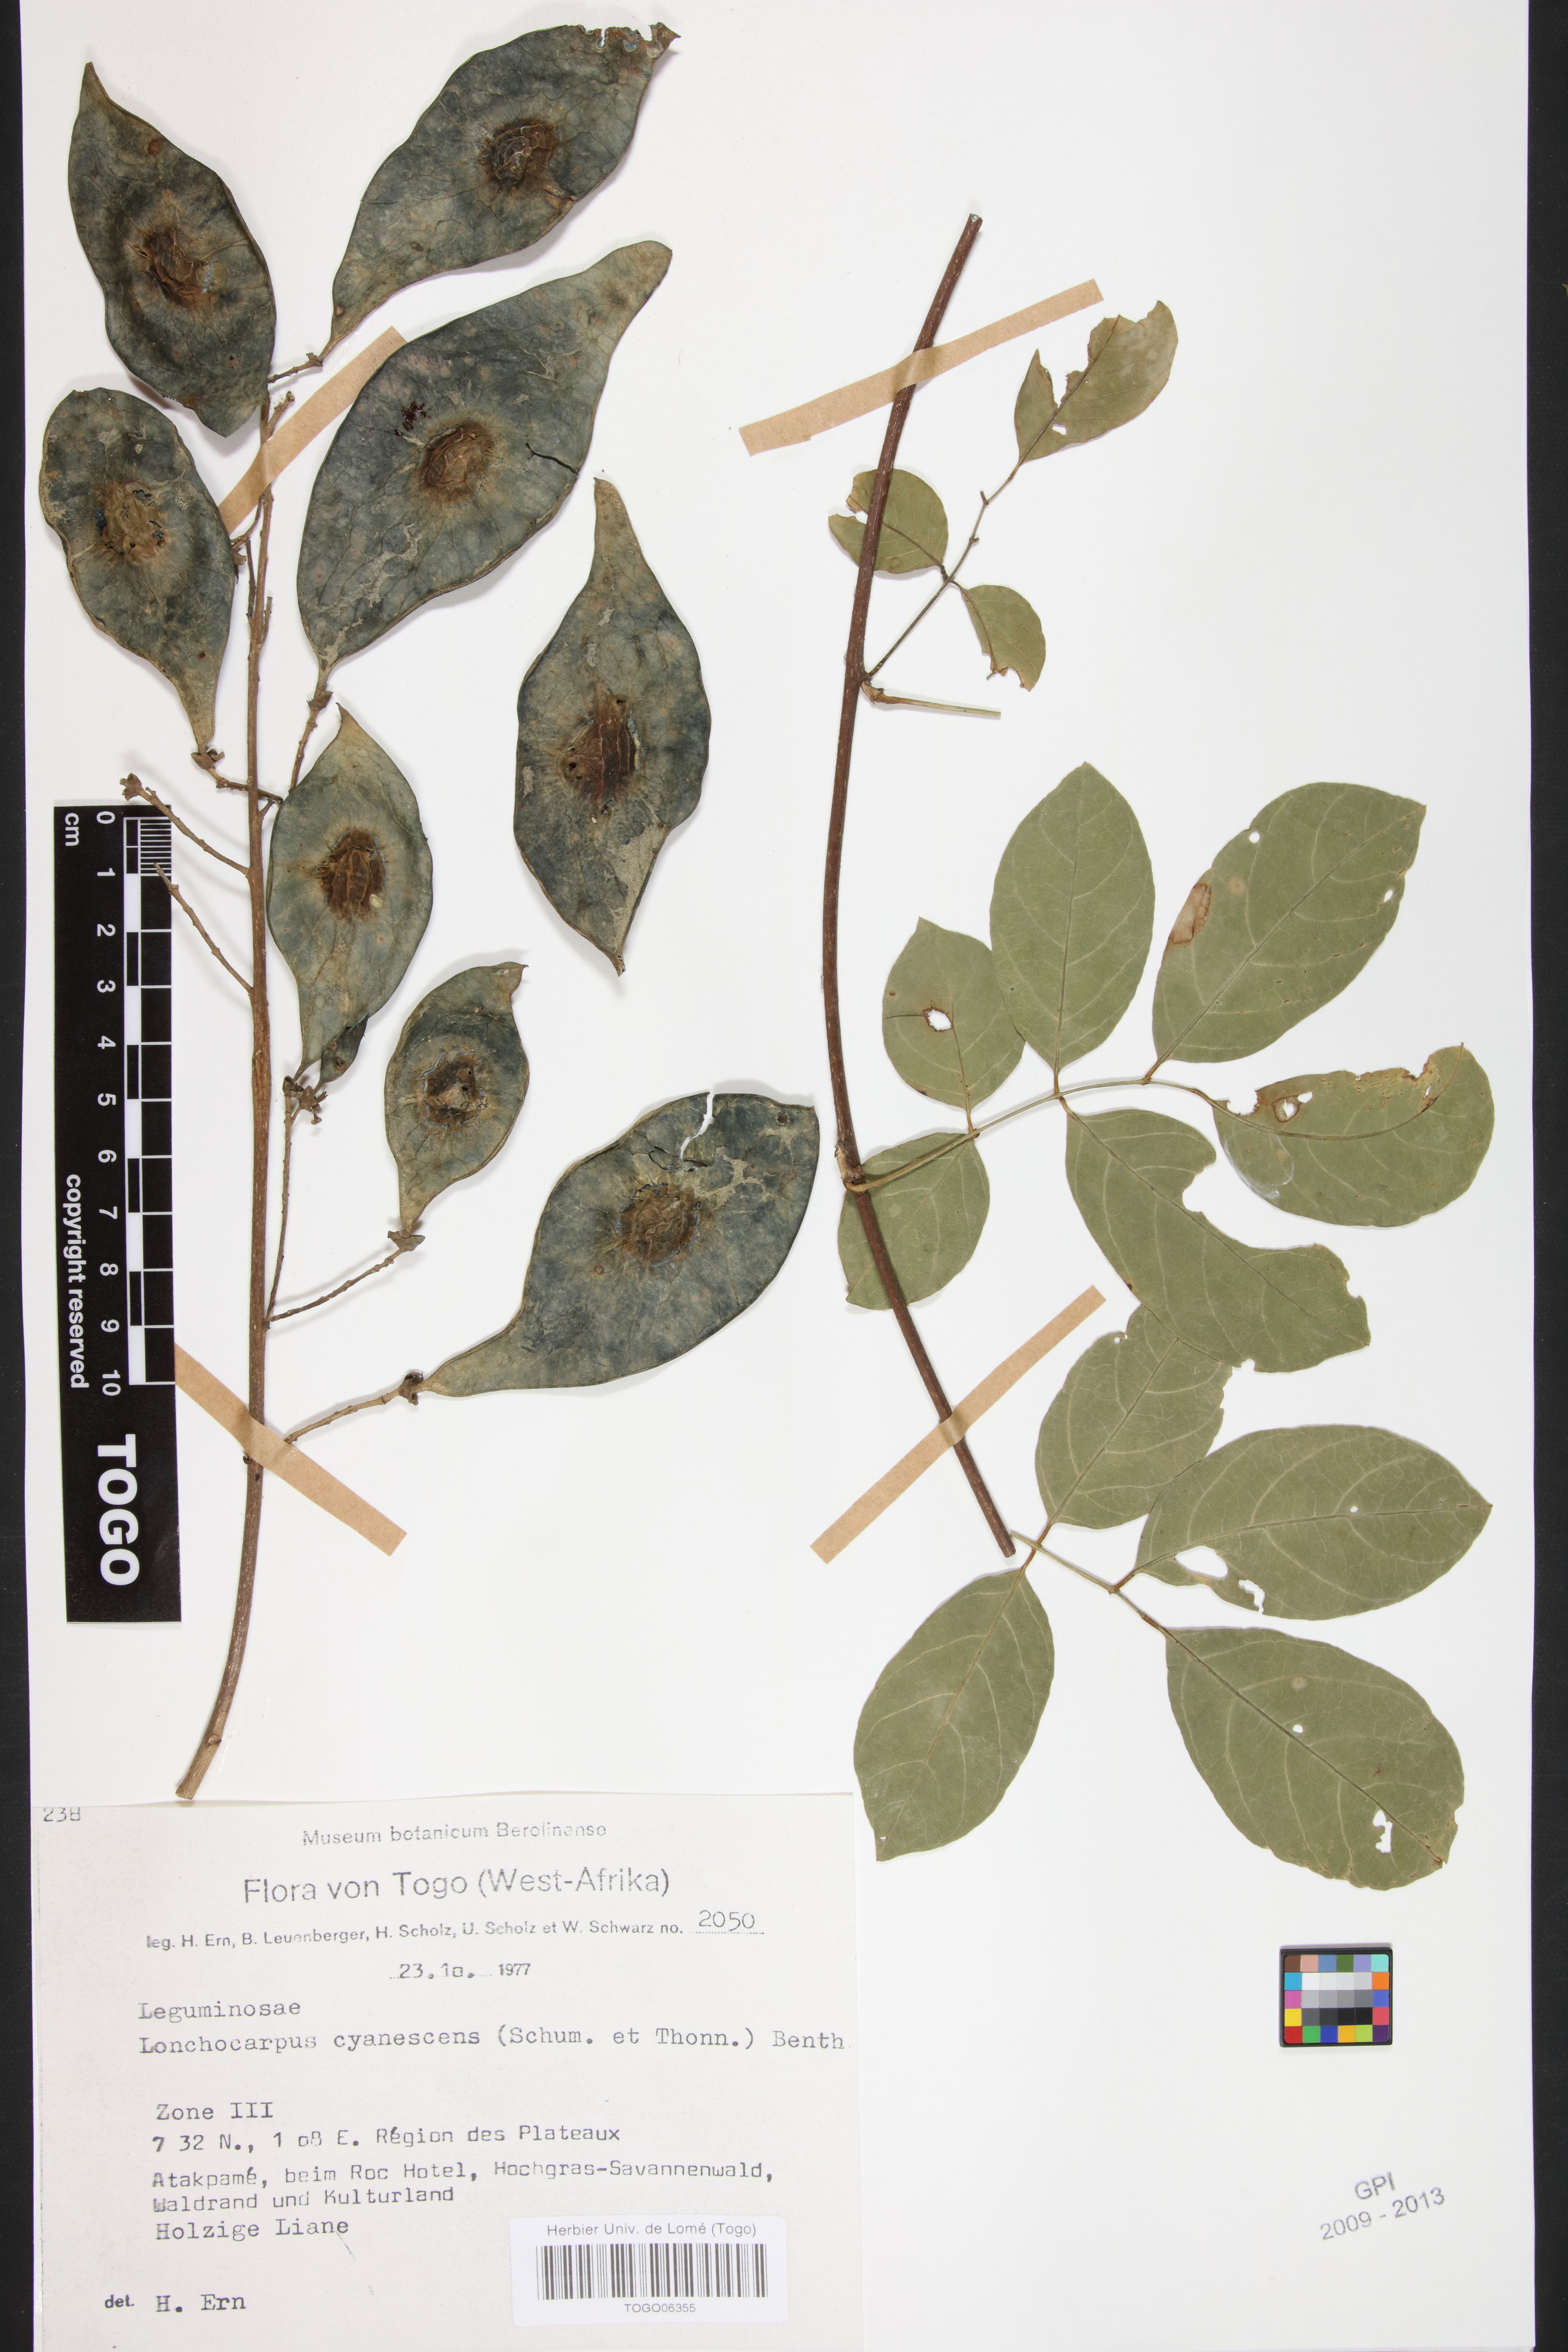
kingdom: Plantae
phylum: Tracheophyta
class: Magnoliopsida
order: Fabales
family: Fabaceae
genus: Philenoptera
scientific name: Philenoptera cyanescens
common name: West african-indigo
